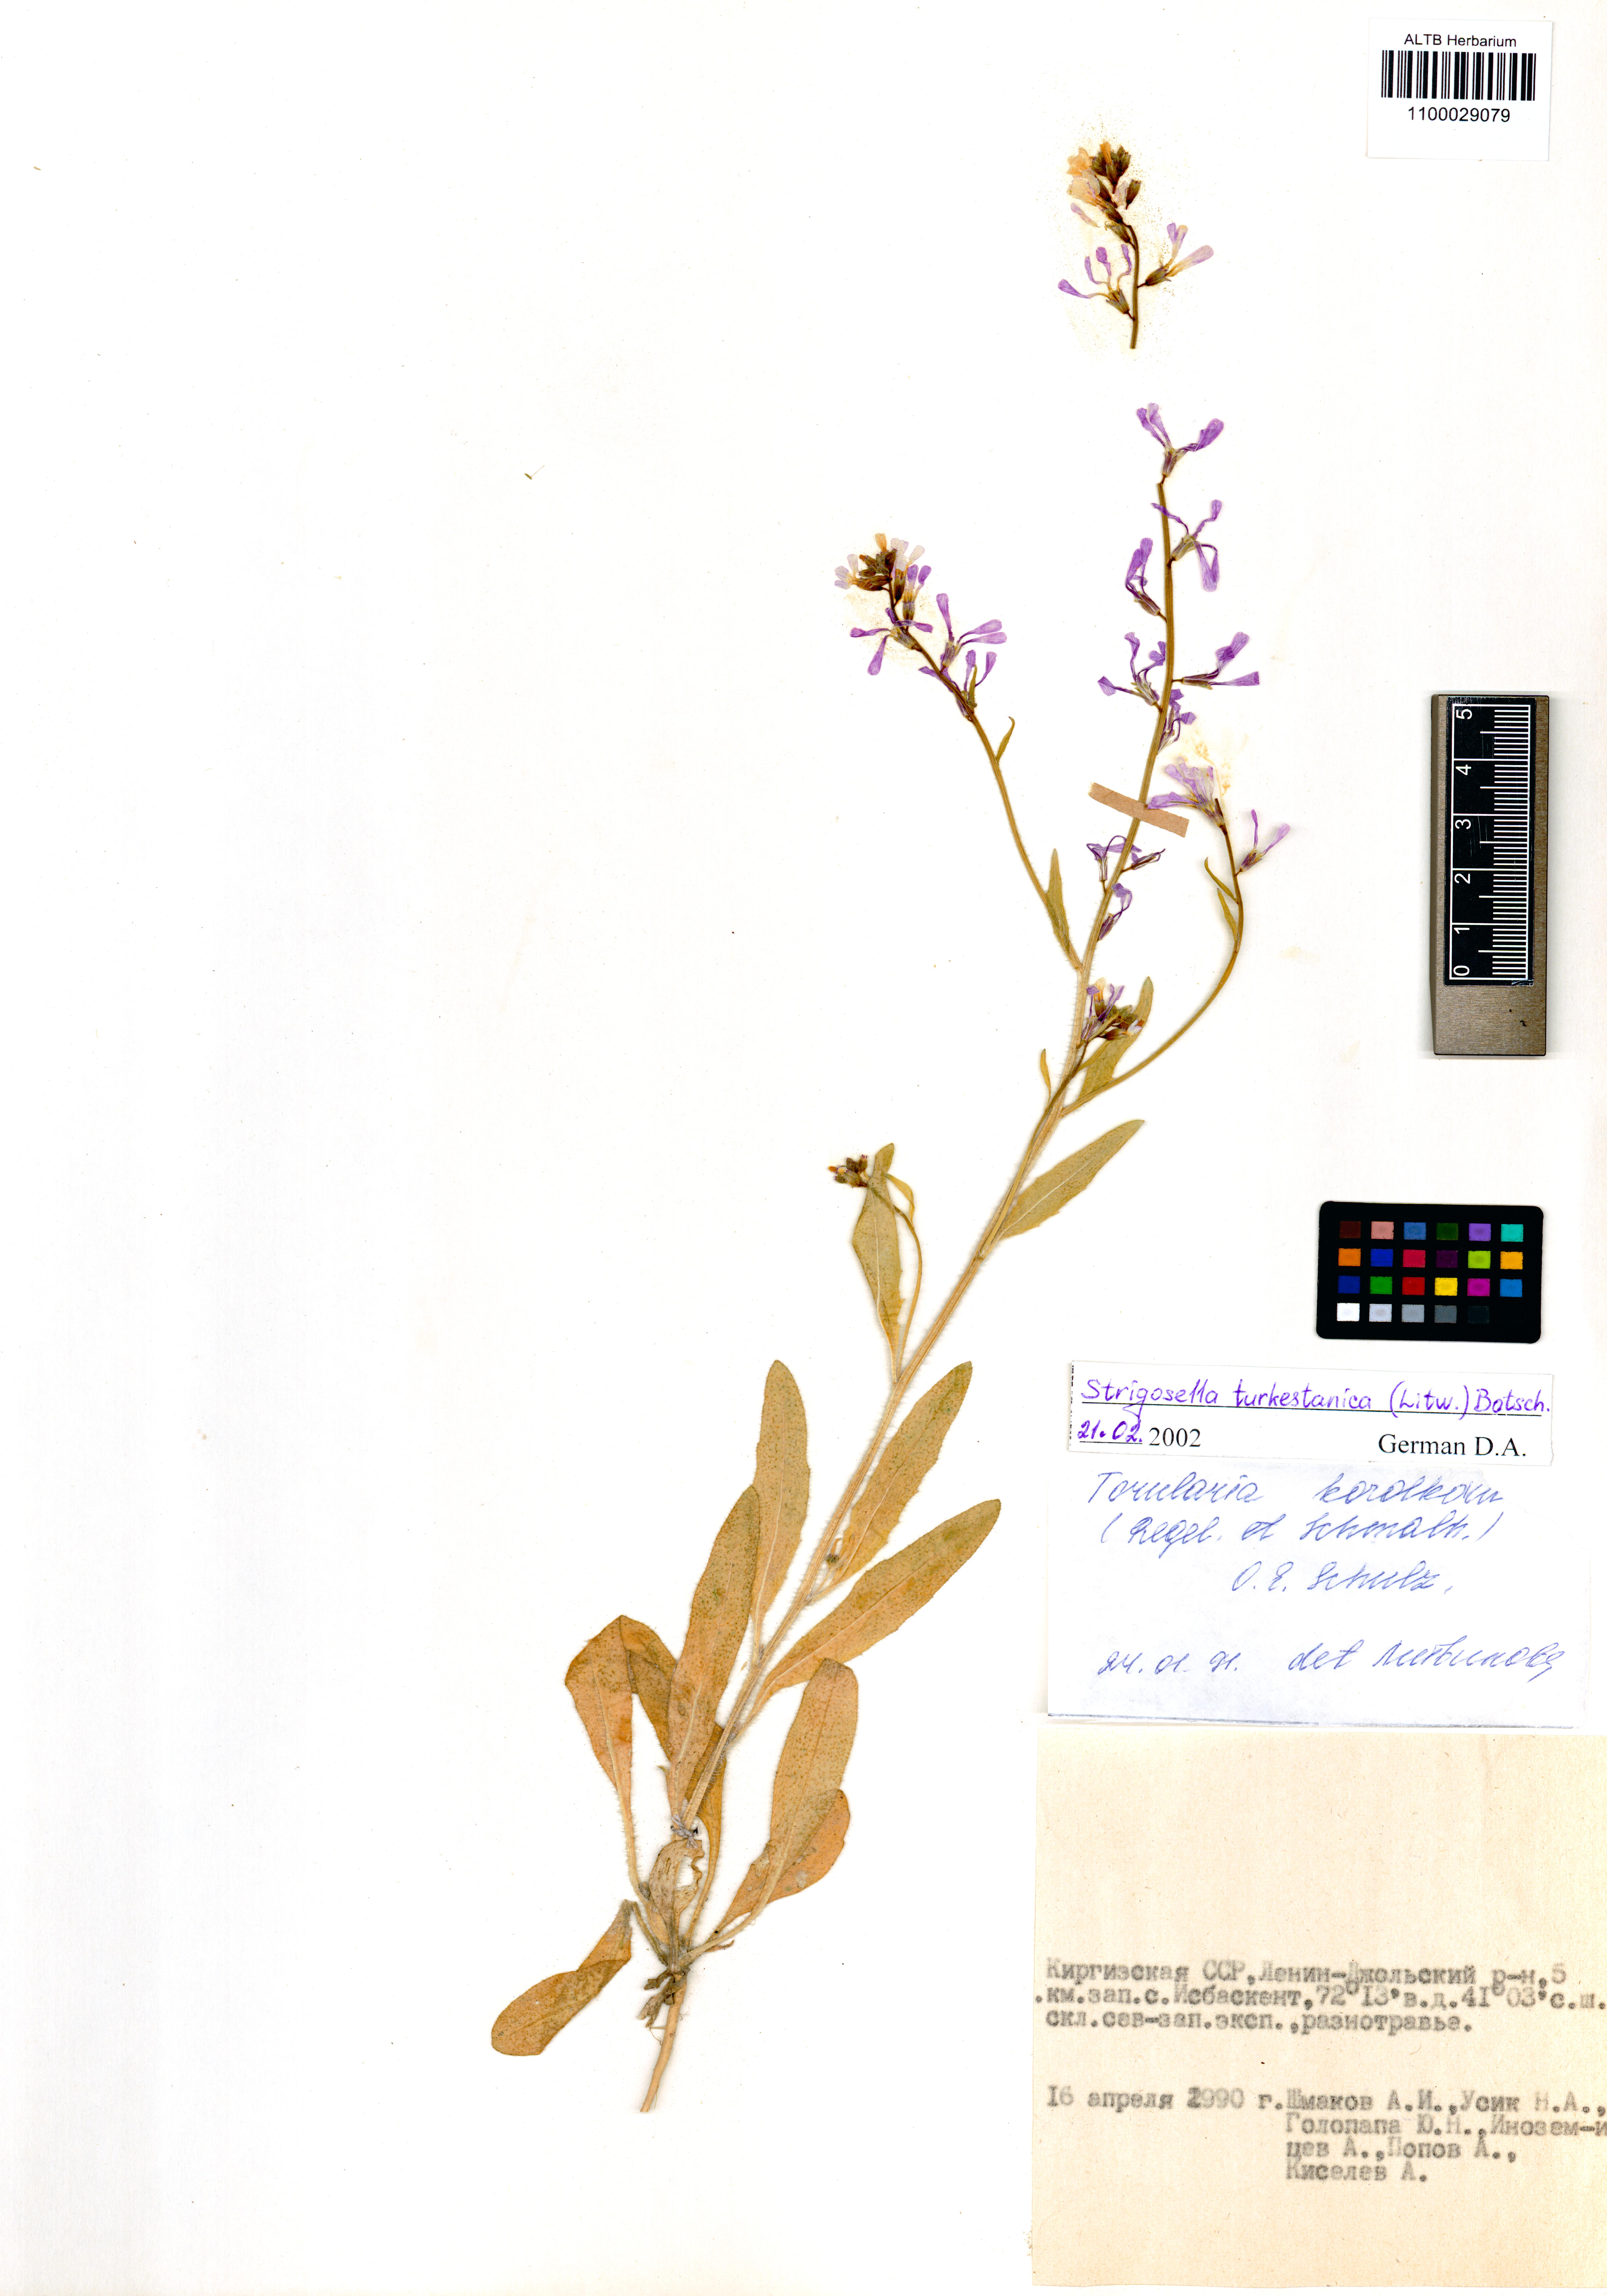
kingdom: Plantae
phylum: Tracheophyta
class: Magnoliopsida
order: Brassicales
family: Brassicaceae
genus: Strigosella
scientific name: Strigosella turkestanica
